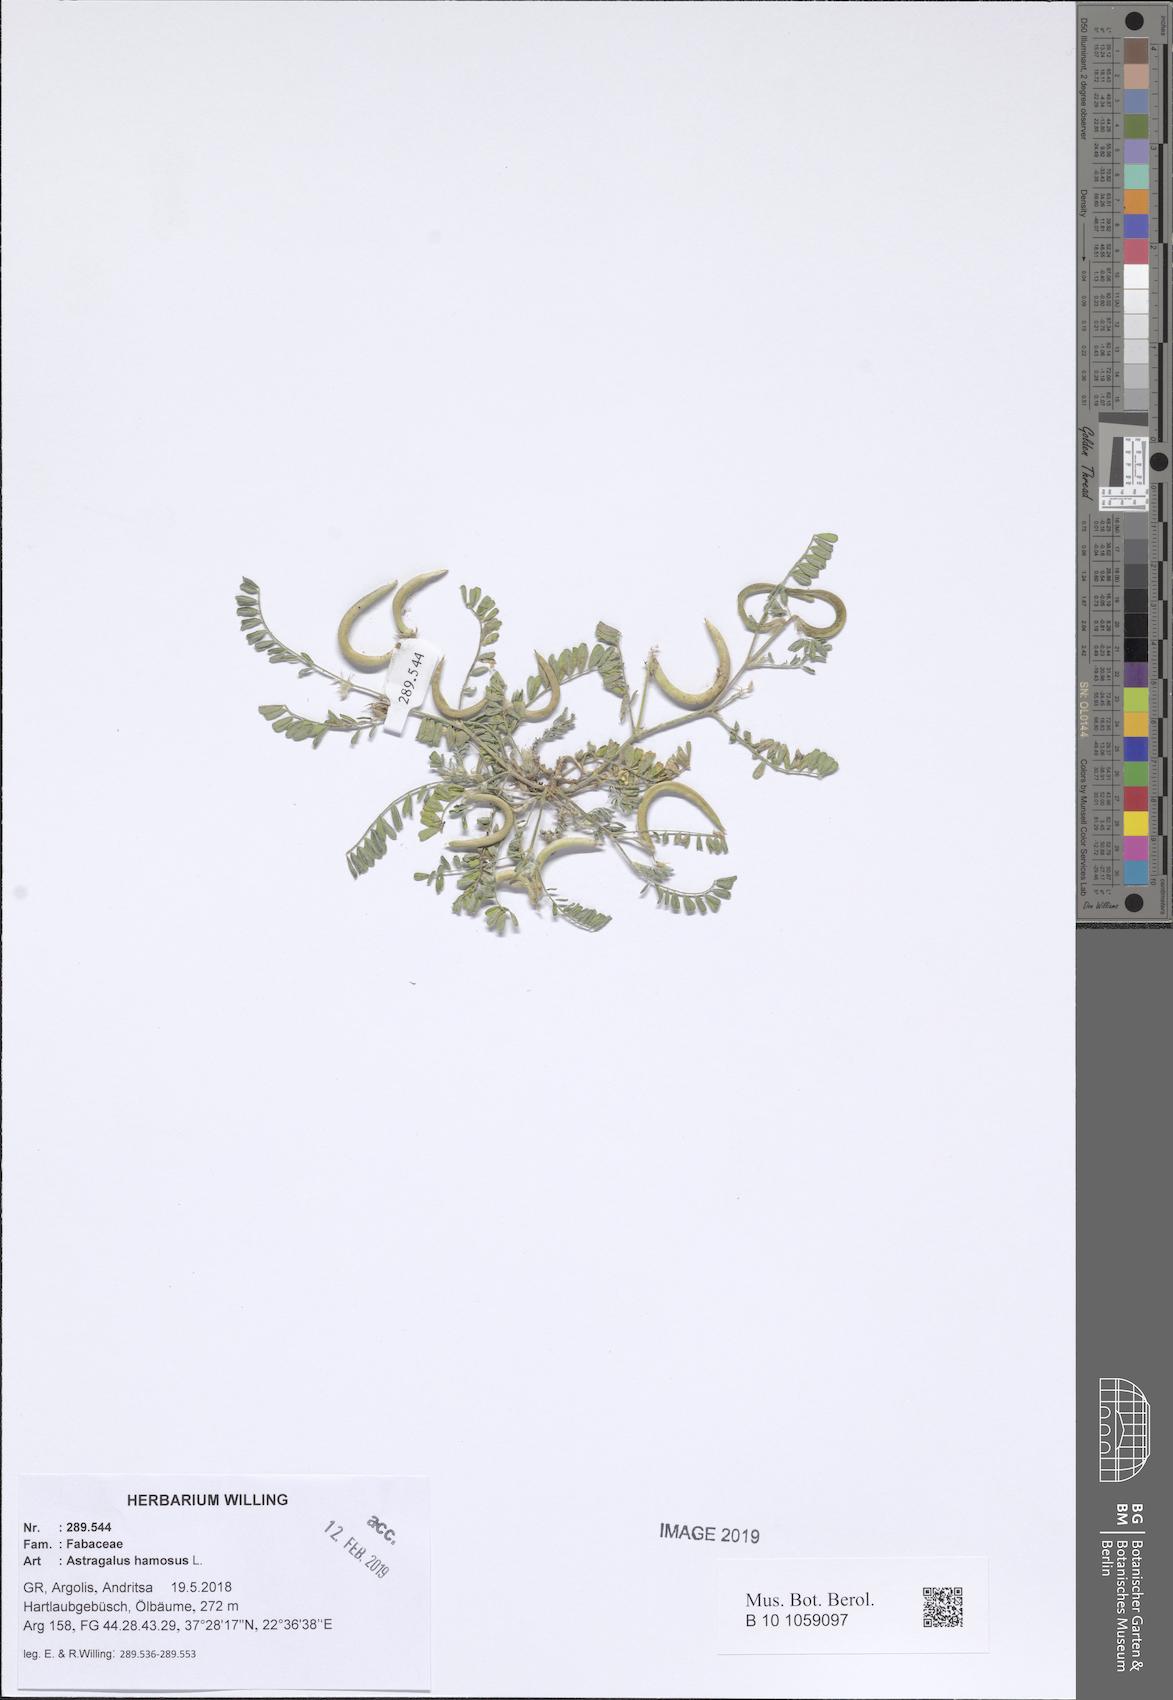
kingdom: Plantae
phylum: Tracheophyta
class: Magnoliopsida
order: Fabales
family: Fabaceae
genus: Astragalus
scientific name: Astragalus hamosus
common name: European milkvetch
